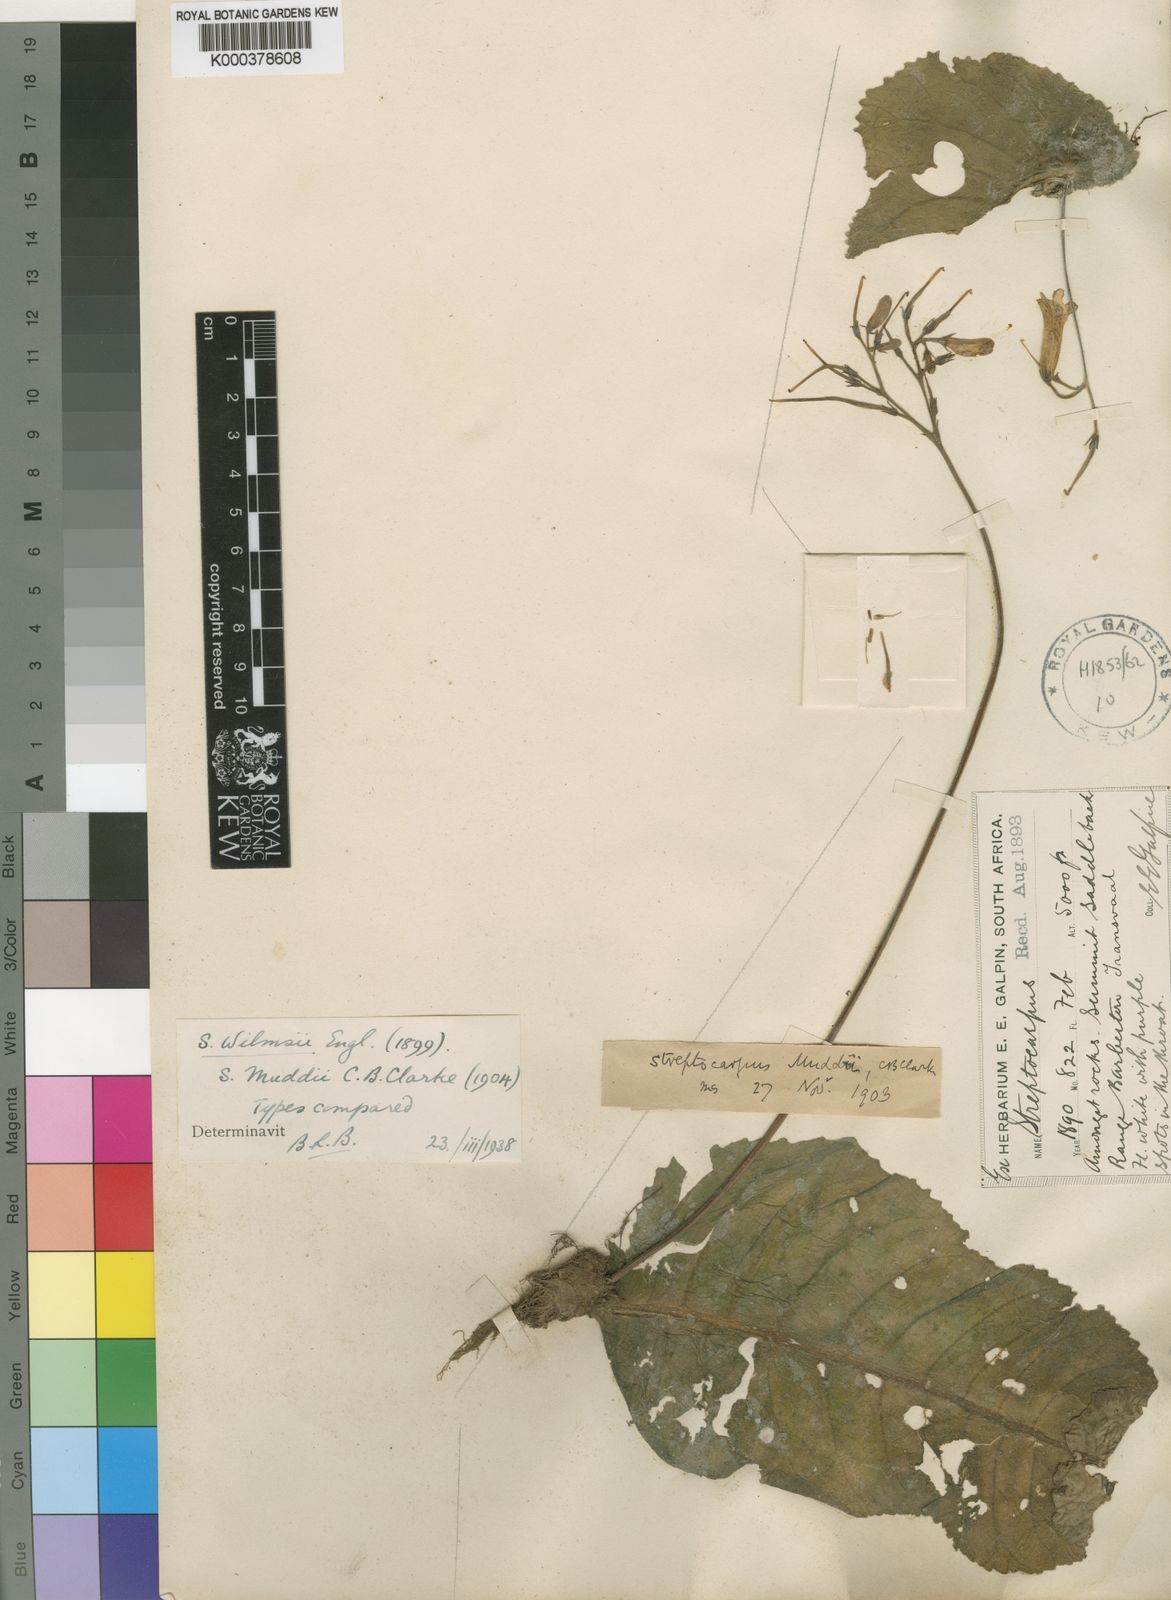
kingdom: Plantae
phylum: Tracheophyta
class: Magnoliopsida
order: Lamiales
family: Gesneriaceae
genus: Streptocarpus
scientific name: Streptocarpus wilmsii
